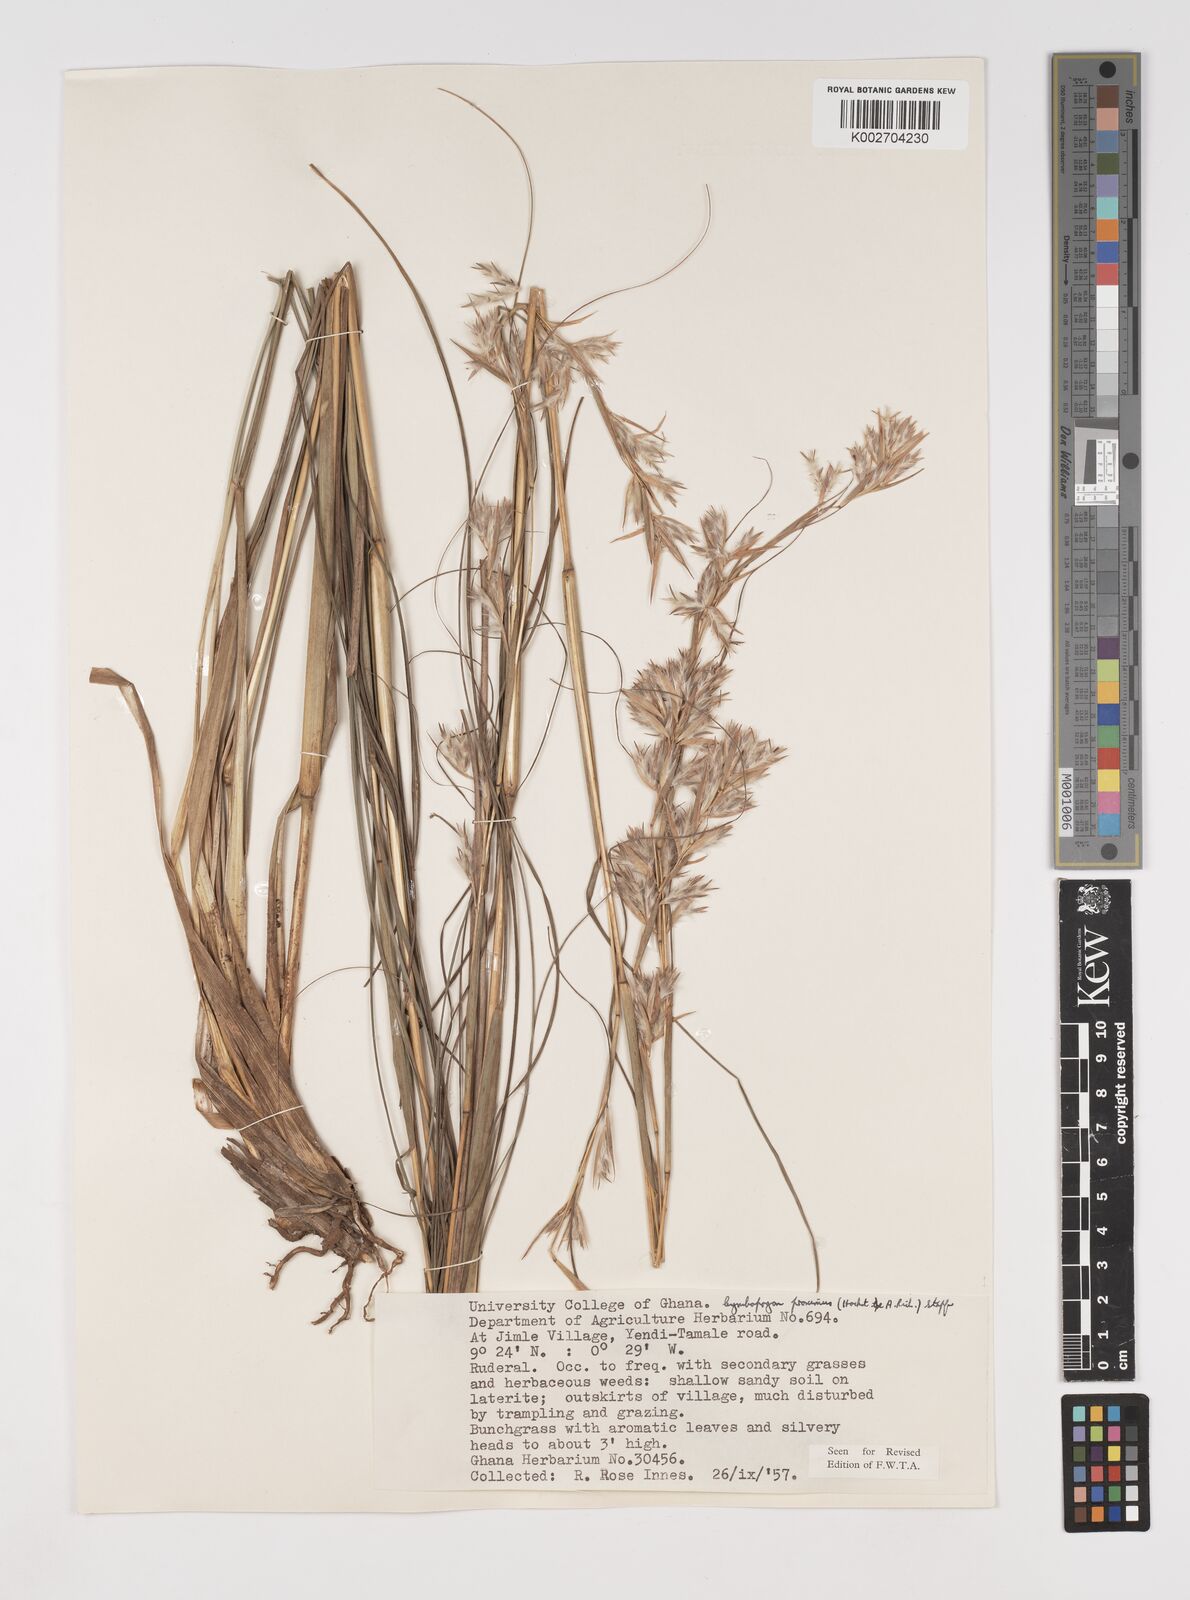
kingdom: Plantae
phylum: Tracheophyta
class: Liliopsida
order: Poales
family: Poaceae
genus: Cymbopogon
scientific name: Cymbopogon schoenanthus
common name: Geranium grass
